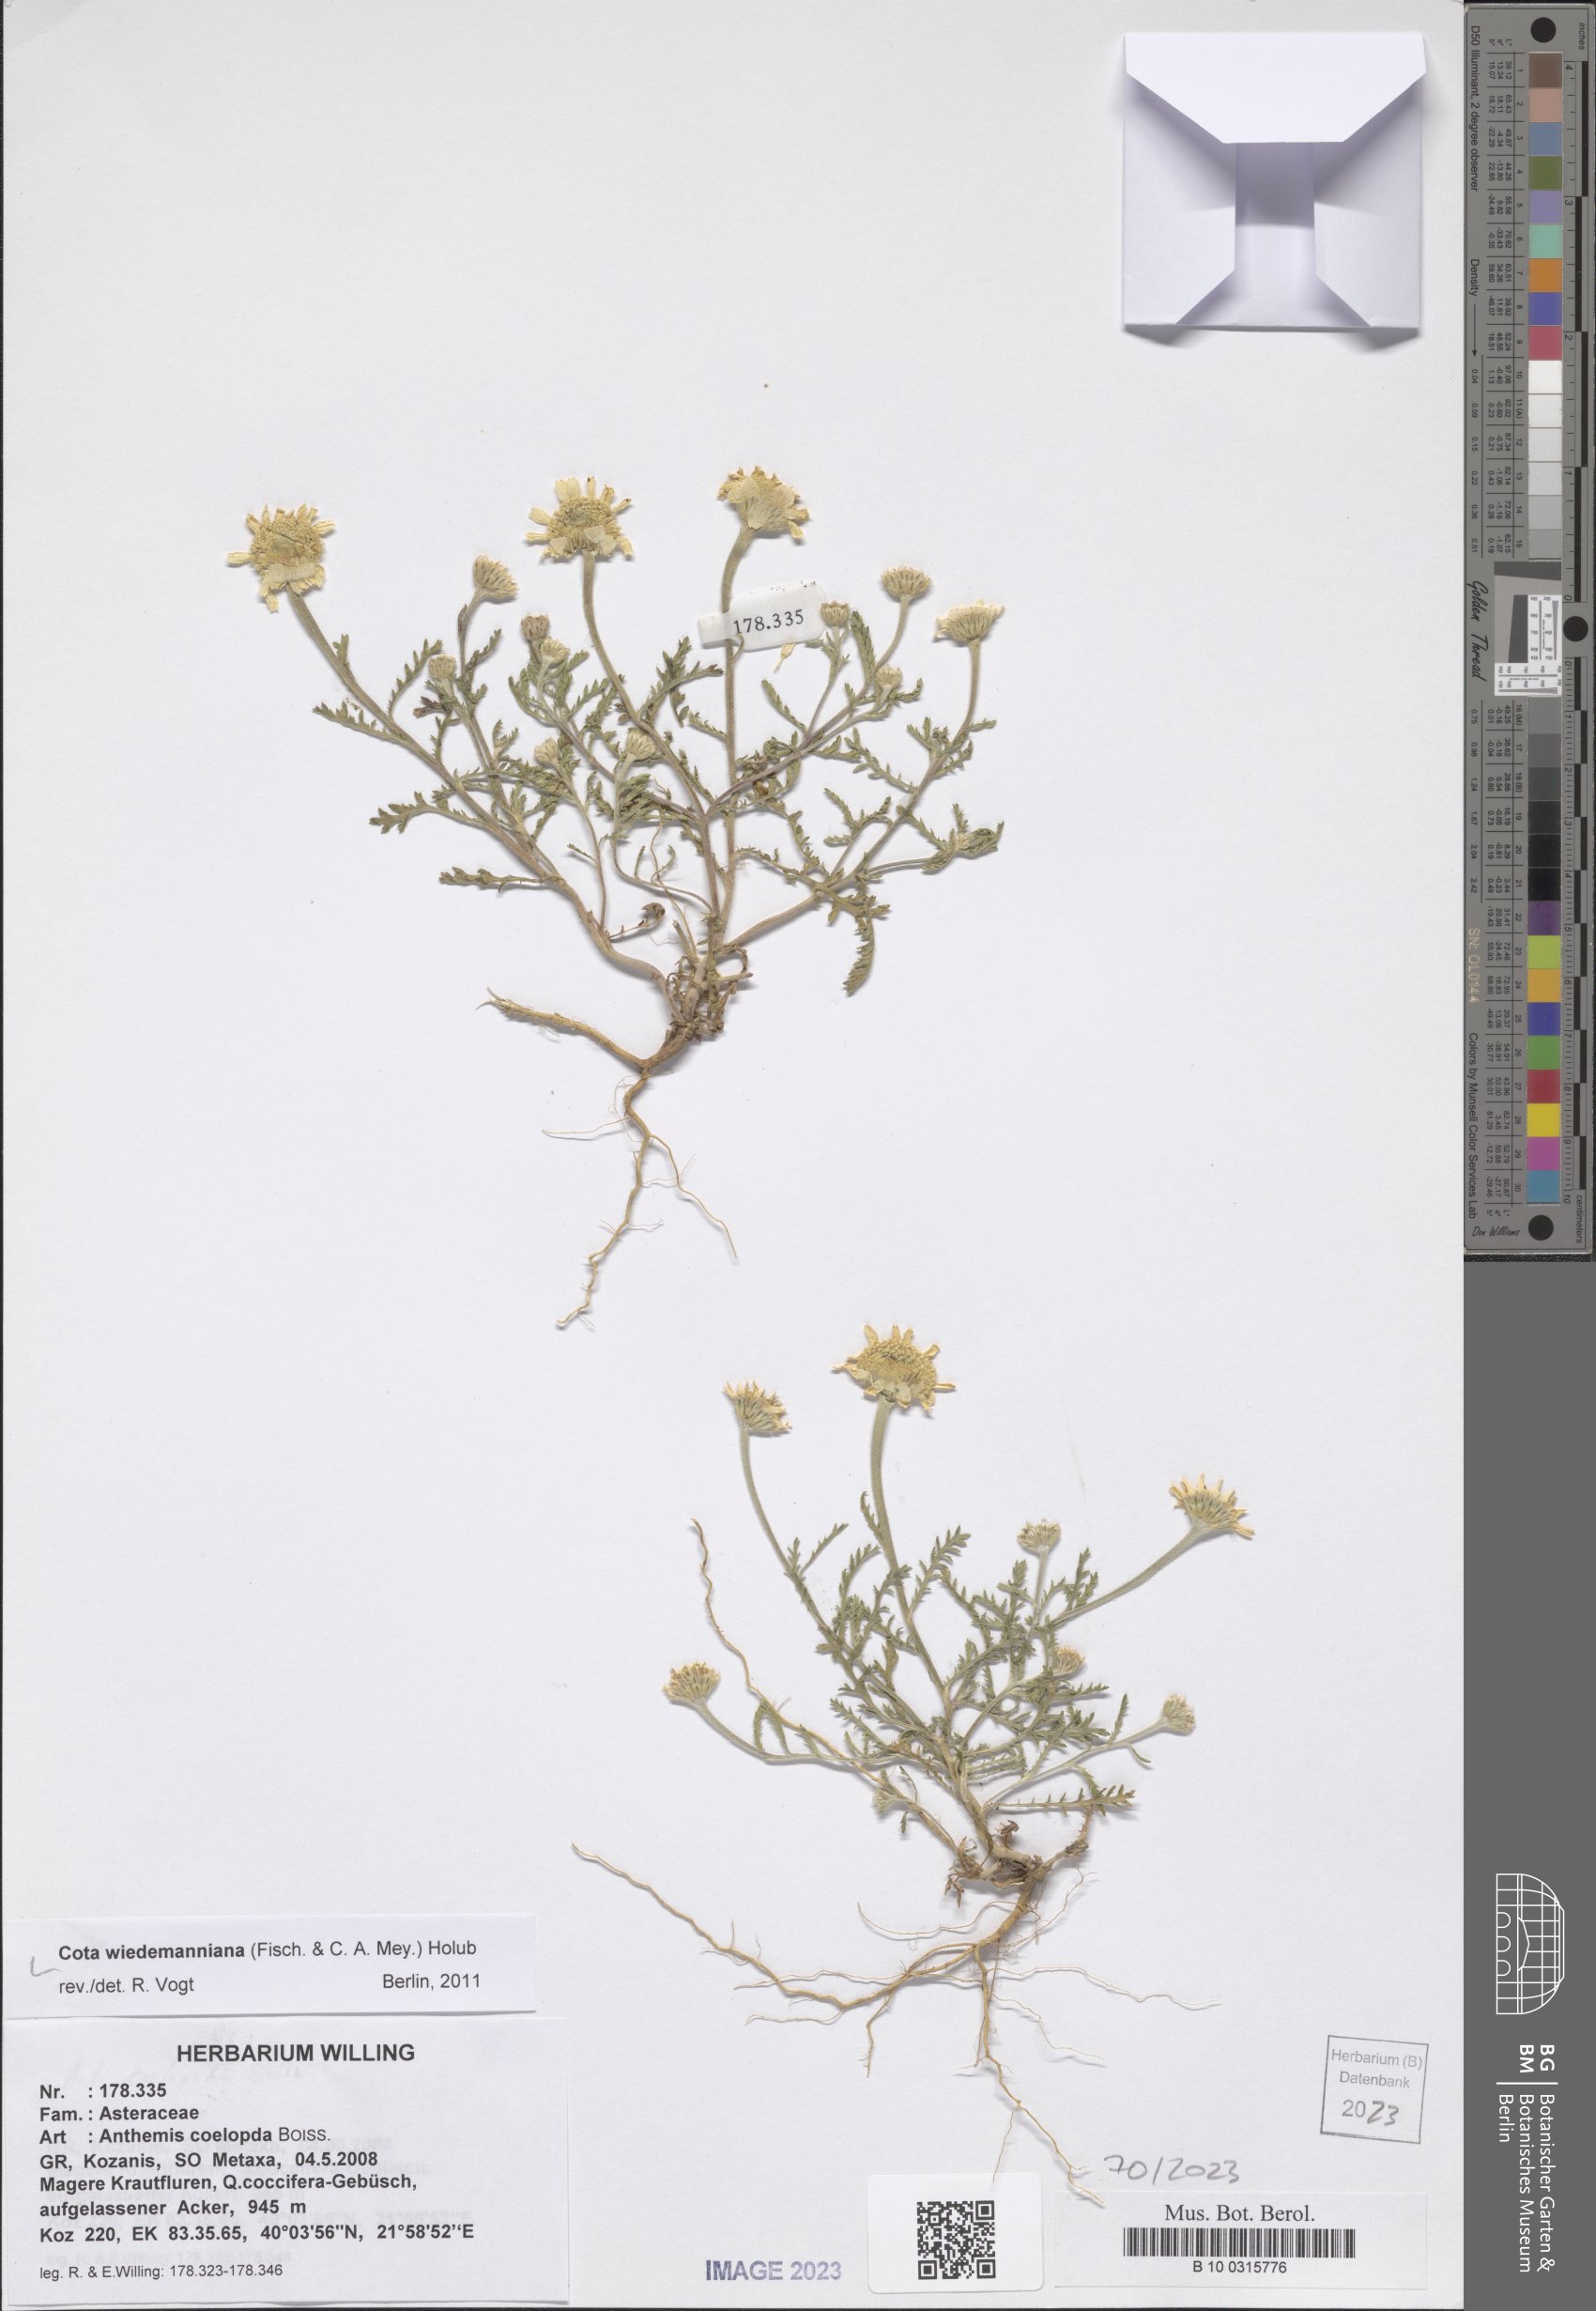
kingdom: Plantae
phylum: Tracheophyta
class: Magnoliopsida
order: Asterales
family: Asteraceae
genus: Cota
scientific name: Cota wiedemanniana
